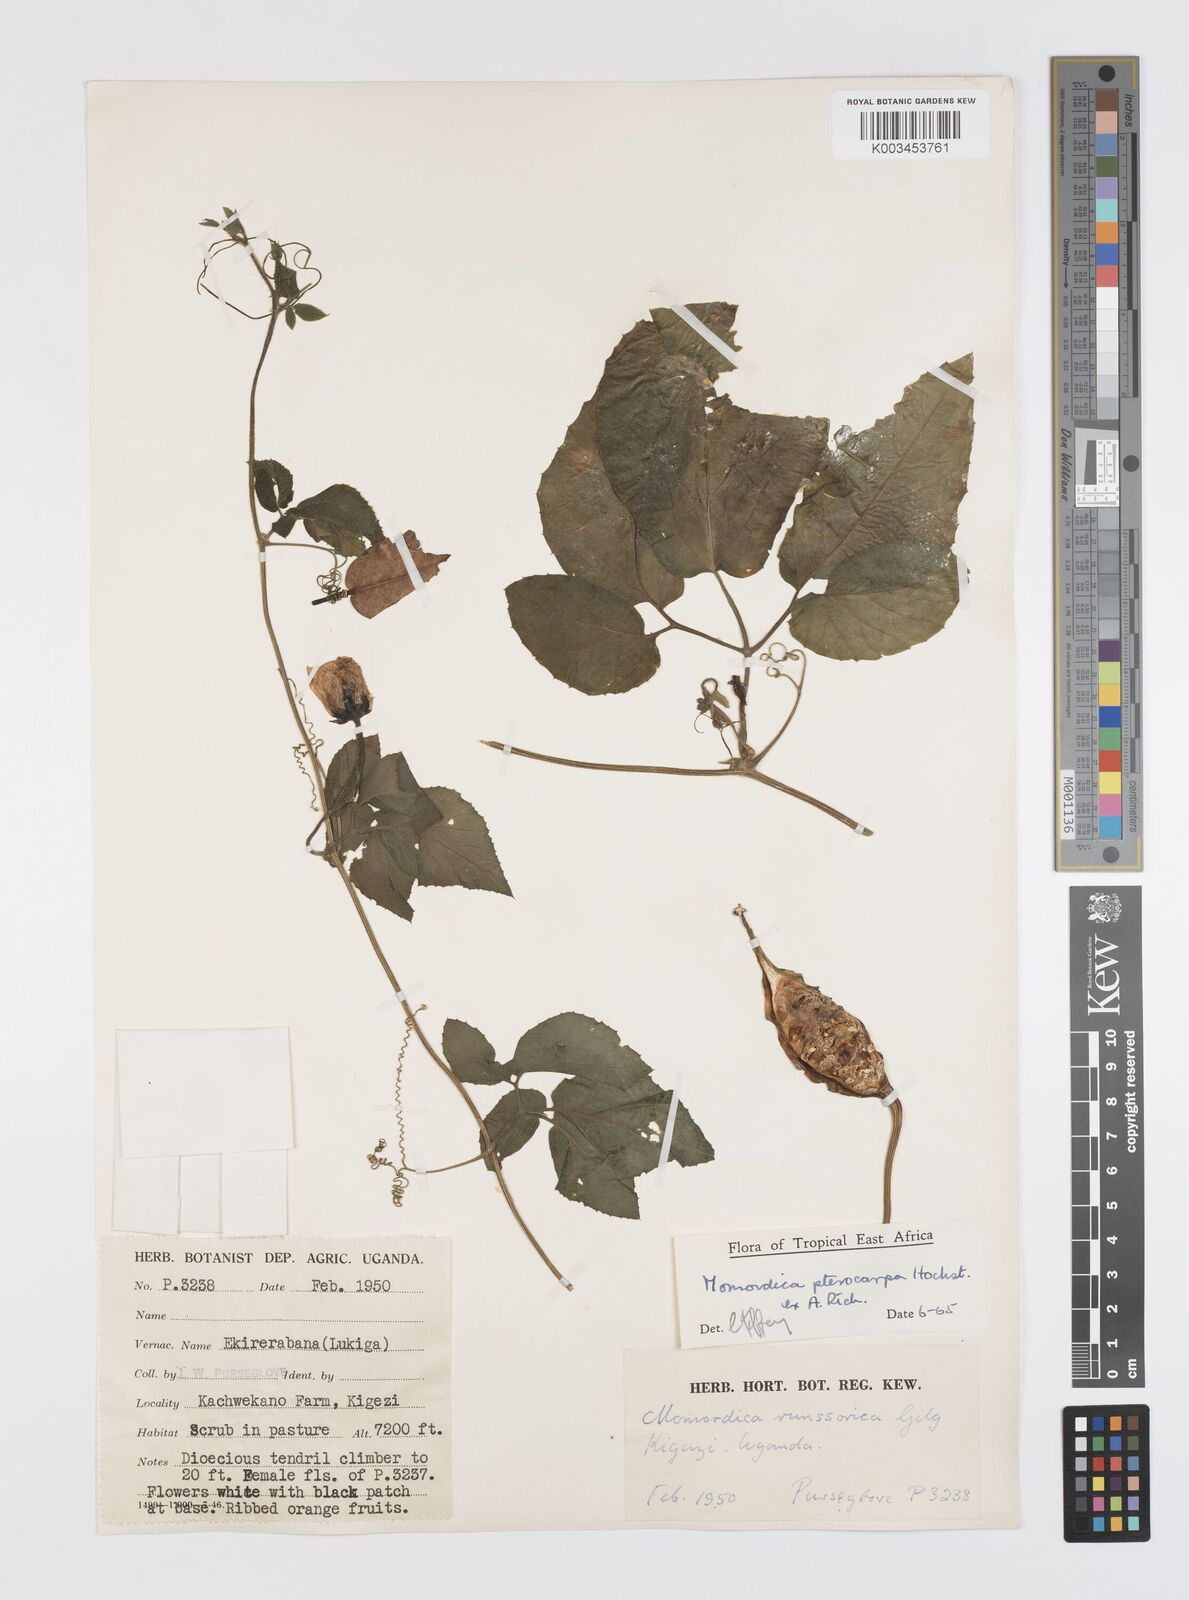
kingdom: Plantae
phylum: Tracheophyta
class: Magnoliopsida
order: Cucurbitales
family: Cucurbitaceae
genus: Momordica
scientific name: Momordica pterocarpa
